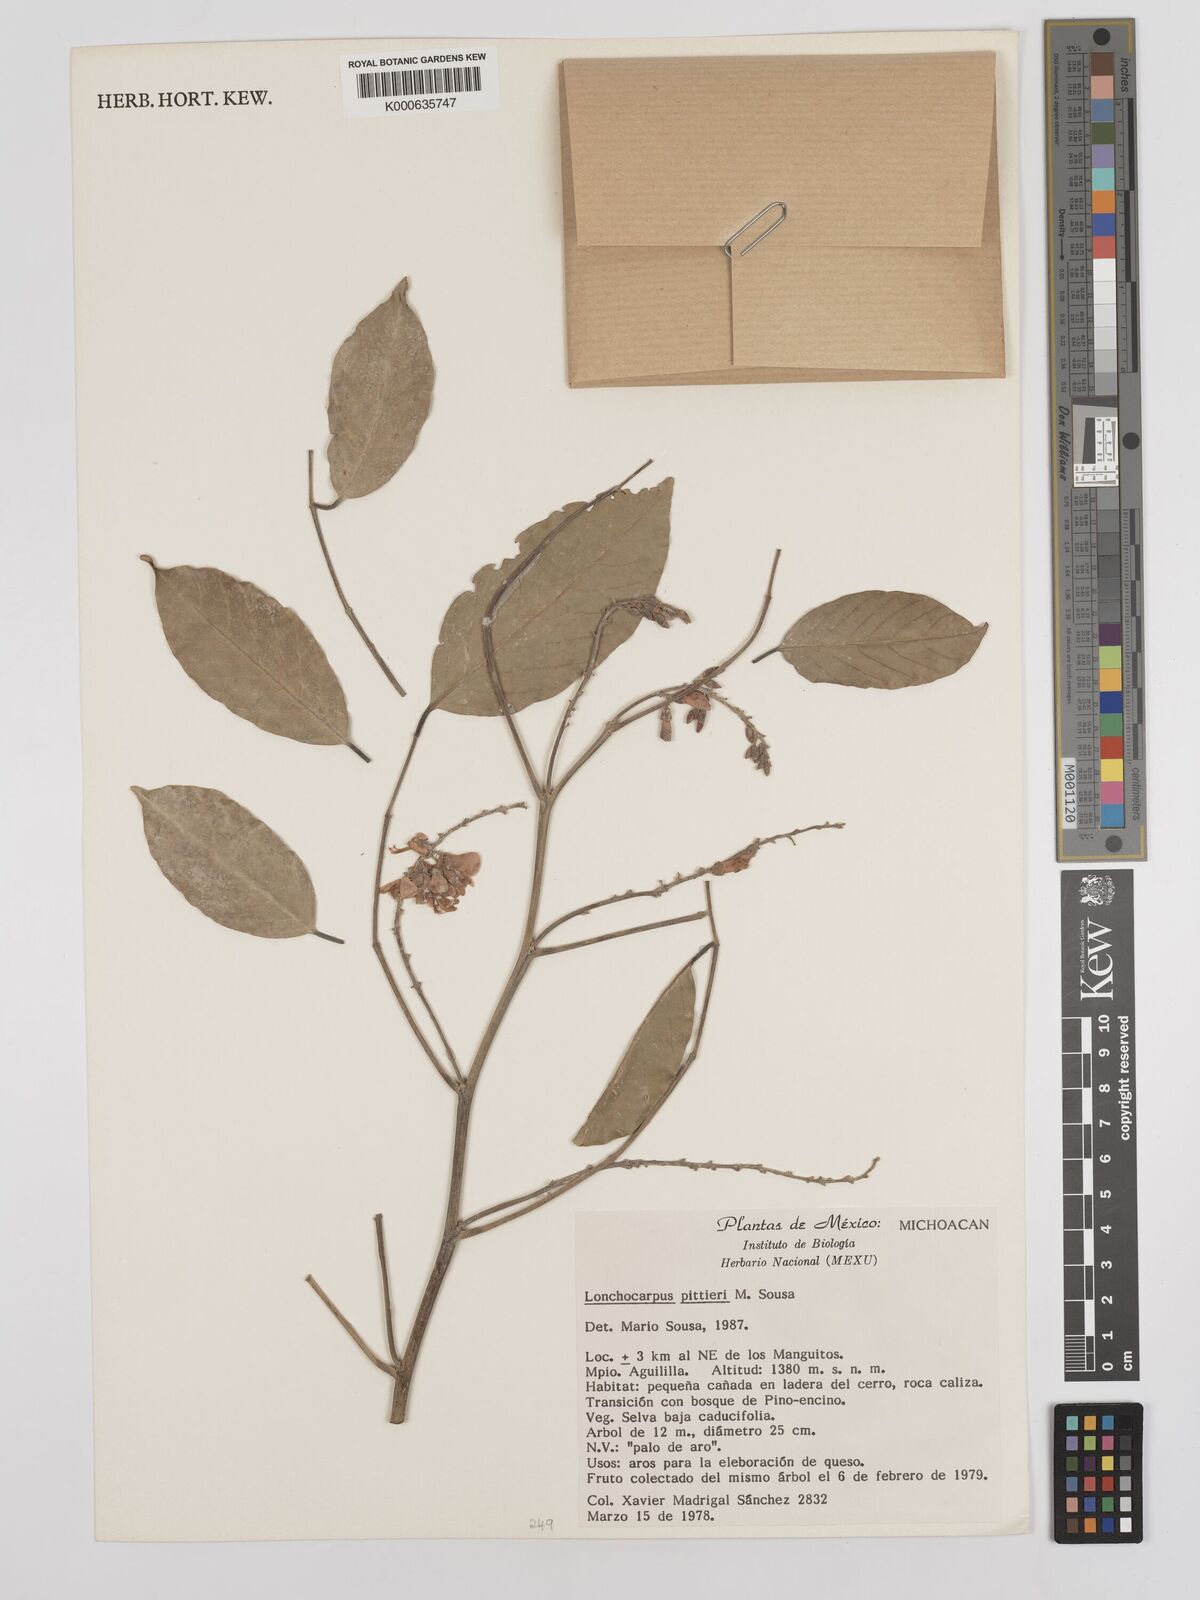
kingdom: Plantae
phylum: Tracheophyta
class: Magnoliopsida
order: Fabales
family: Fabaceae
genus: Lonchocarpus
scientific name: Lonchocarpus pittieri
